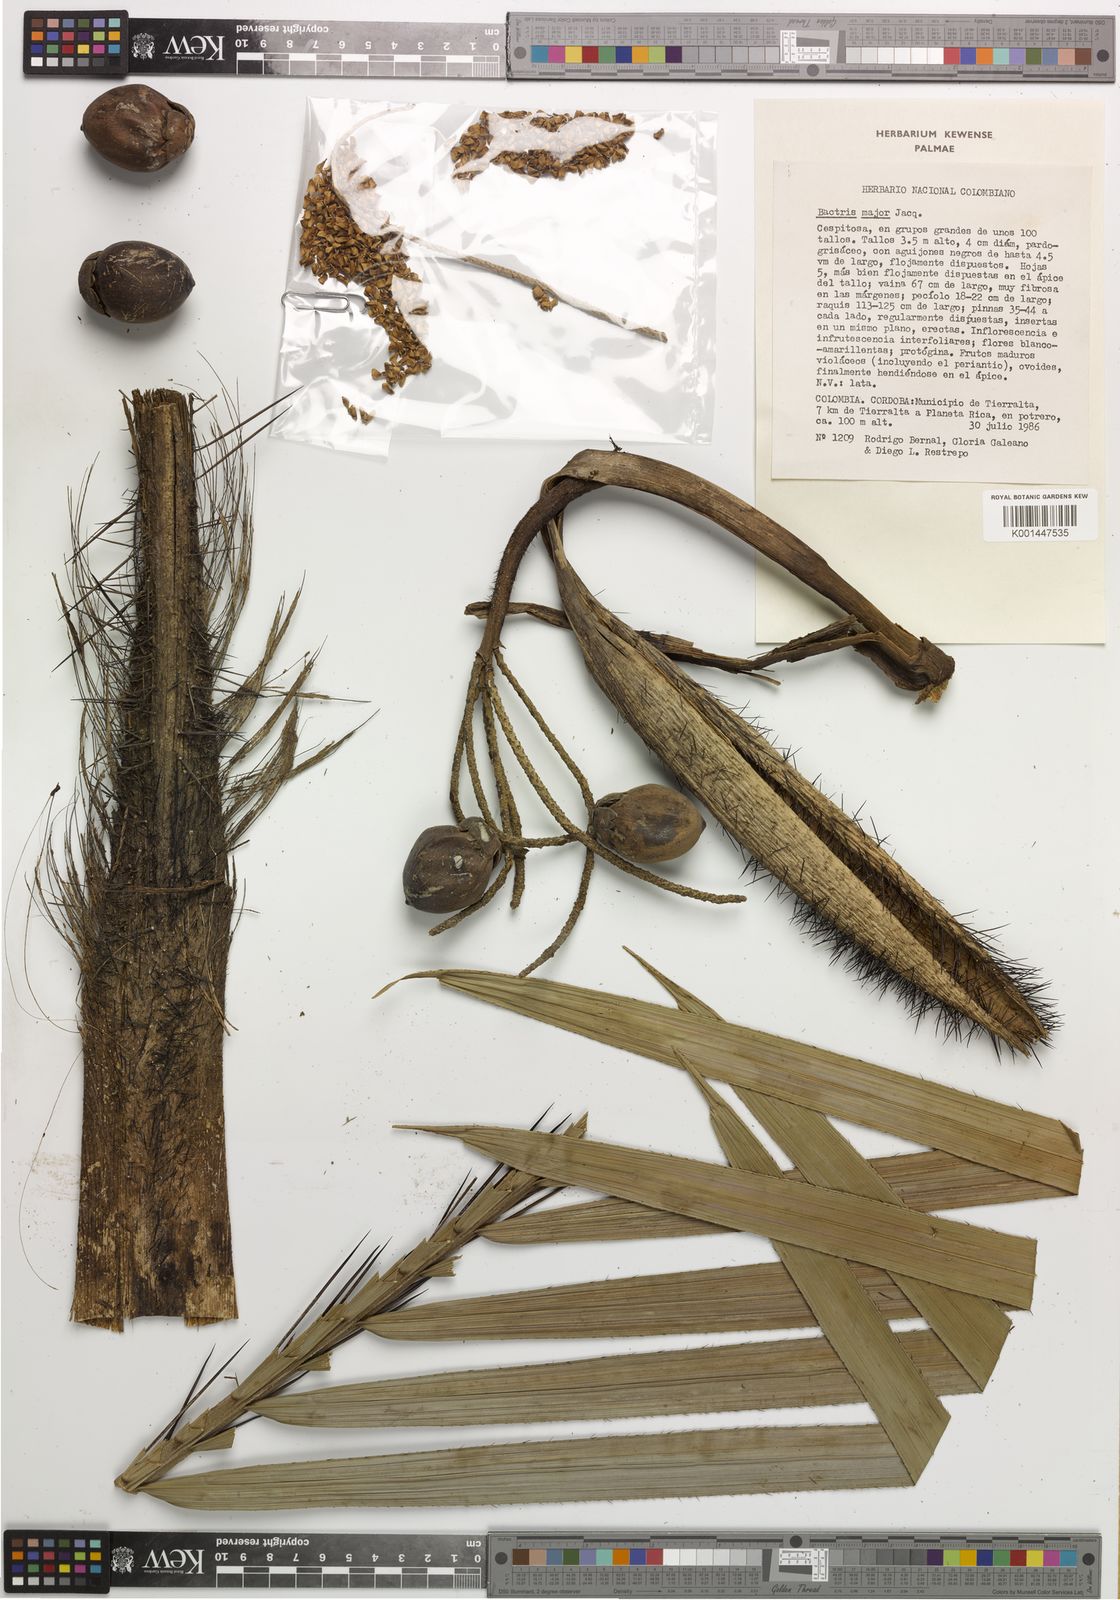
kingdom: Plantae
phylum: Tracheophyta
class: Liliopsida
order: Arecales
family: Arecaceae
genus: Bactris
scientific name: Bactris major
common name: Beach palm
